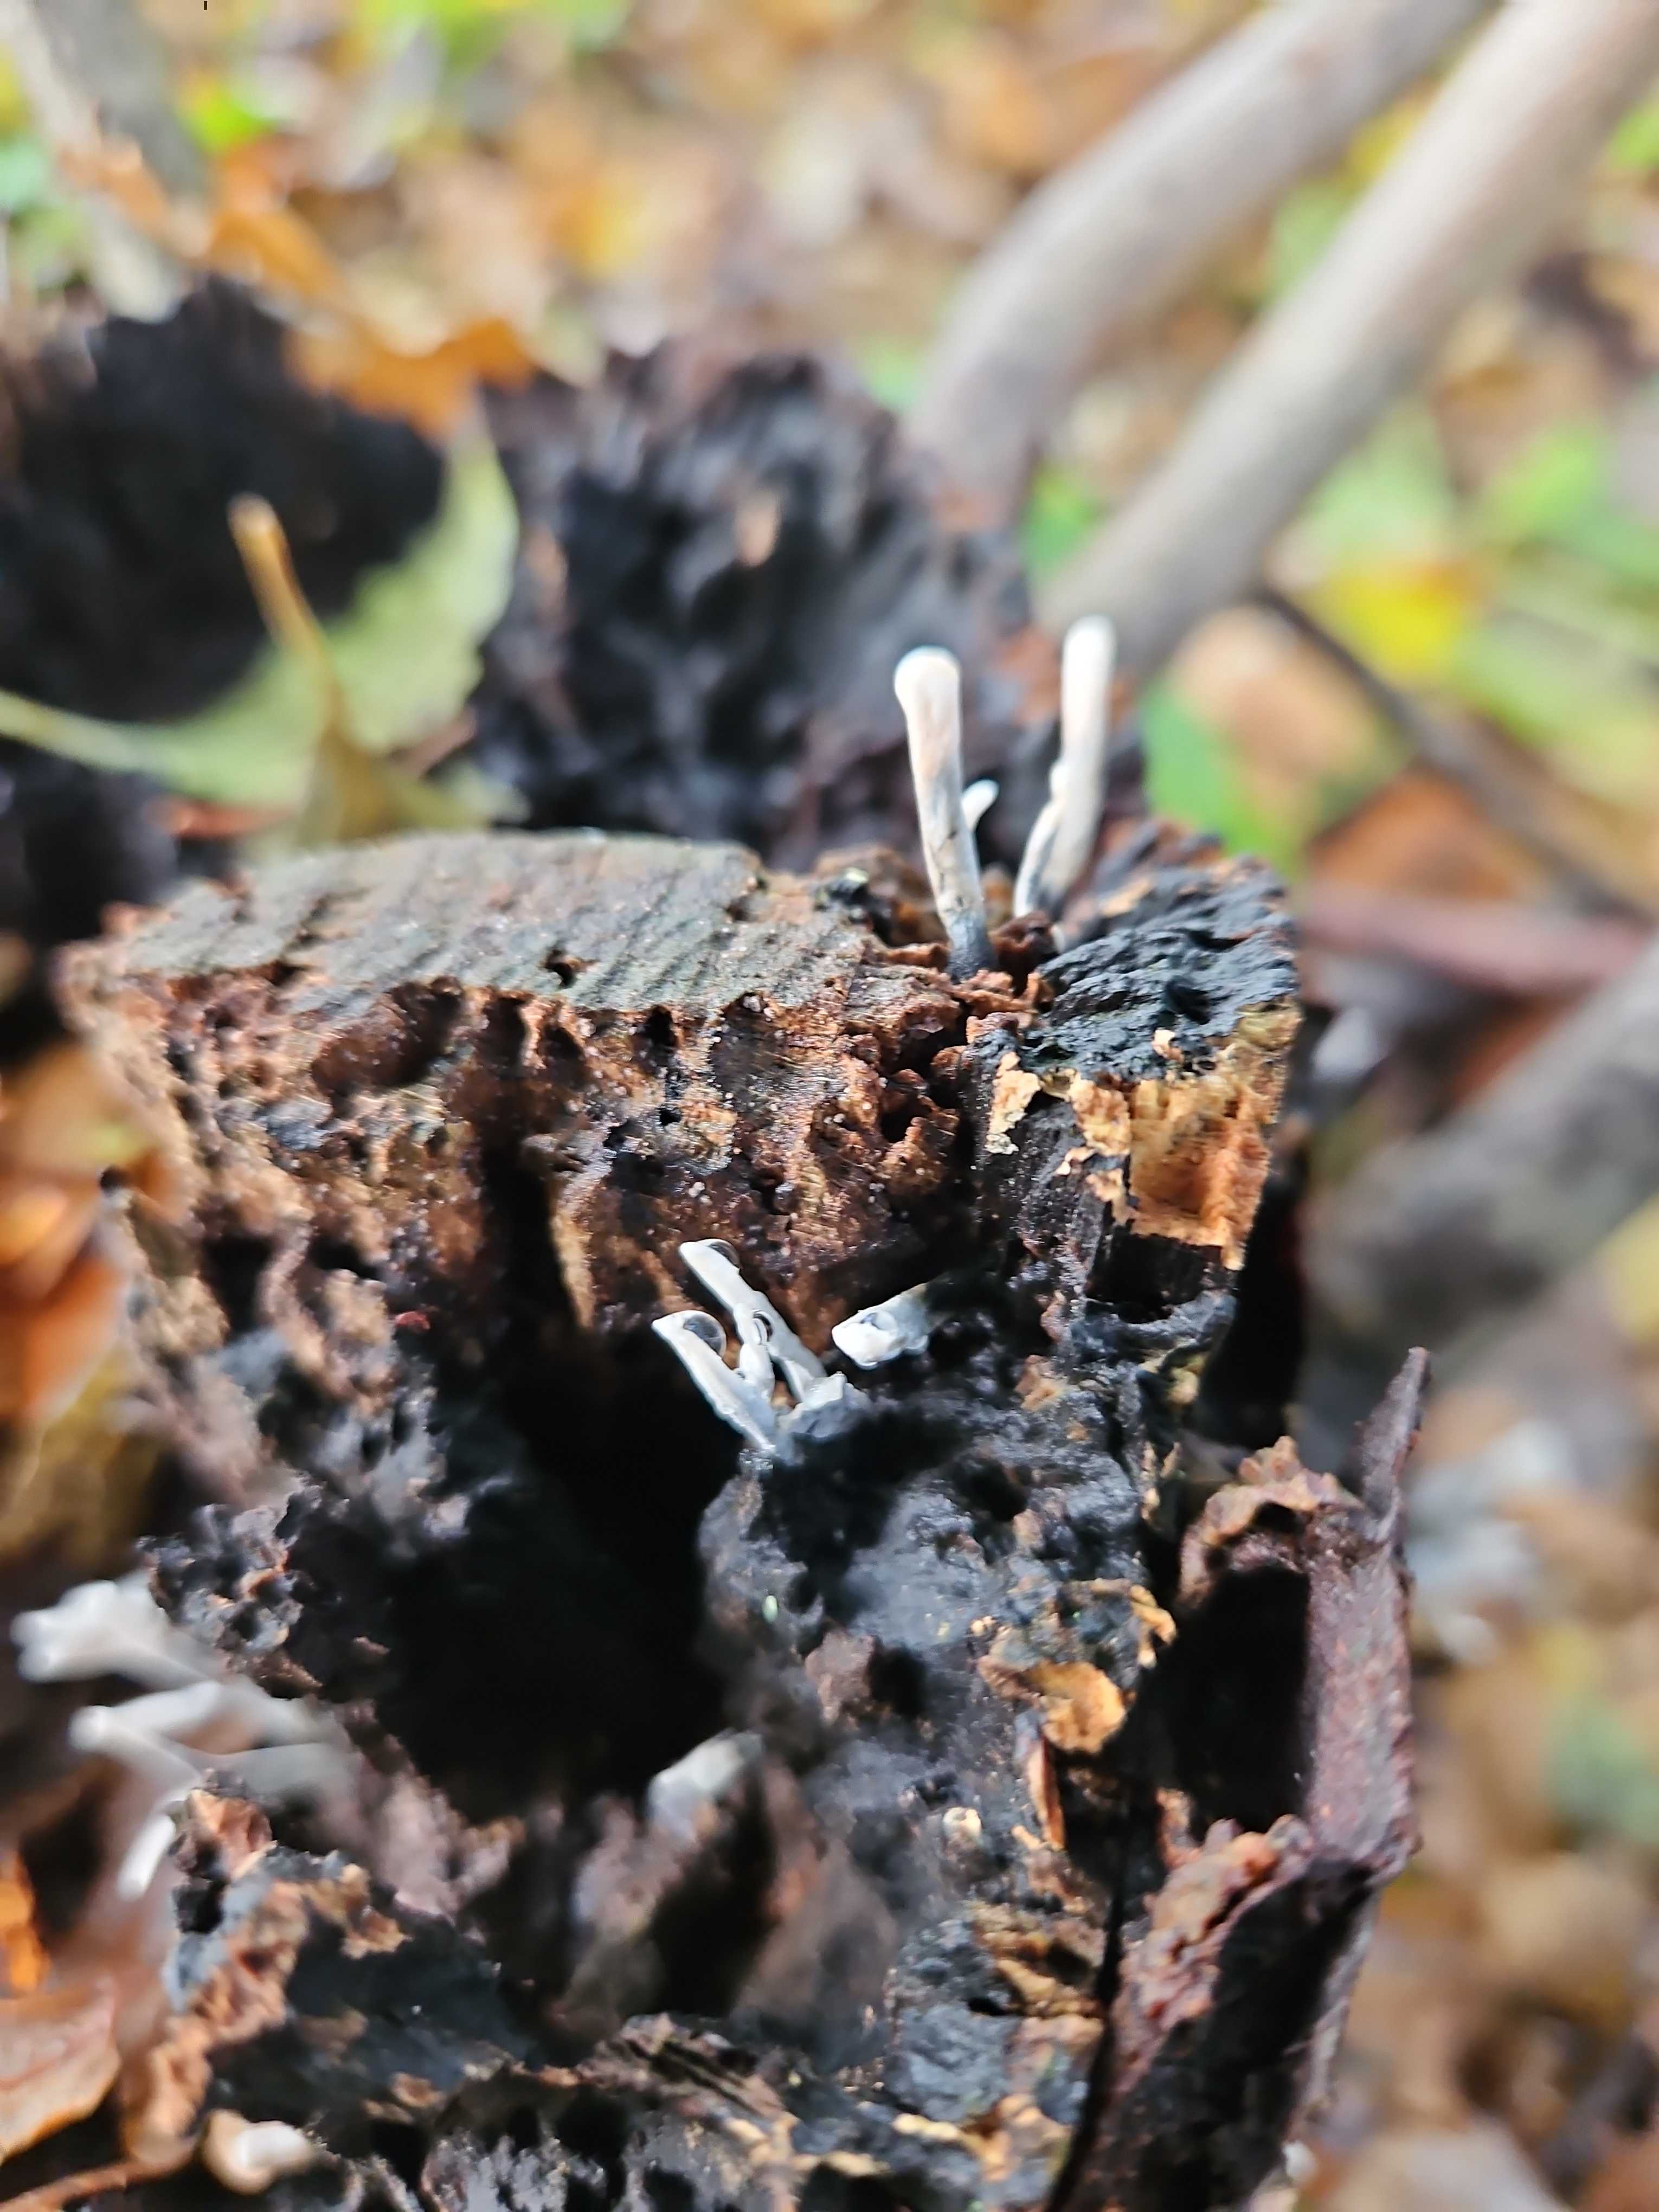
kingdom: Fungi
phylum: Ascomycota
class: Sordariomycetes
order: Xylariales
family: Xylariaceae
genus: Xylaria
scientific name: Xylaria hypoxylon
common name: grenet stødsvamp
